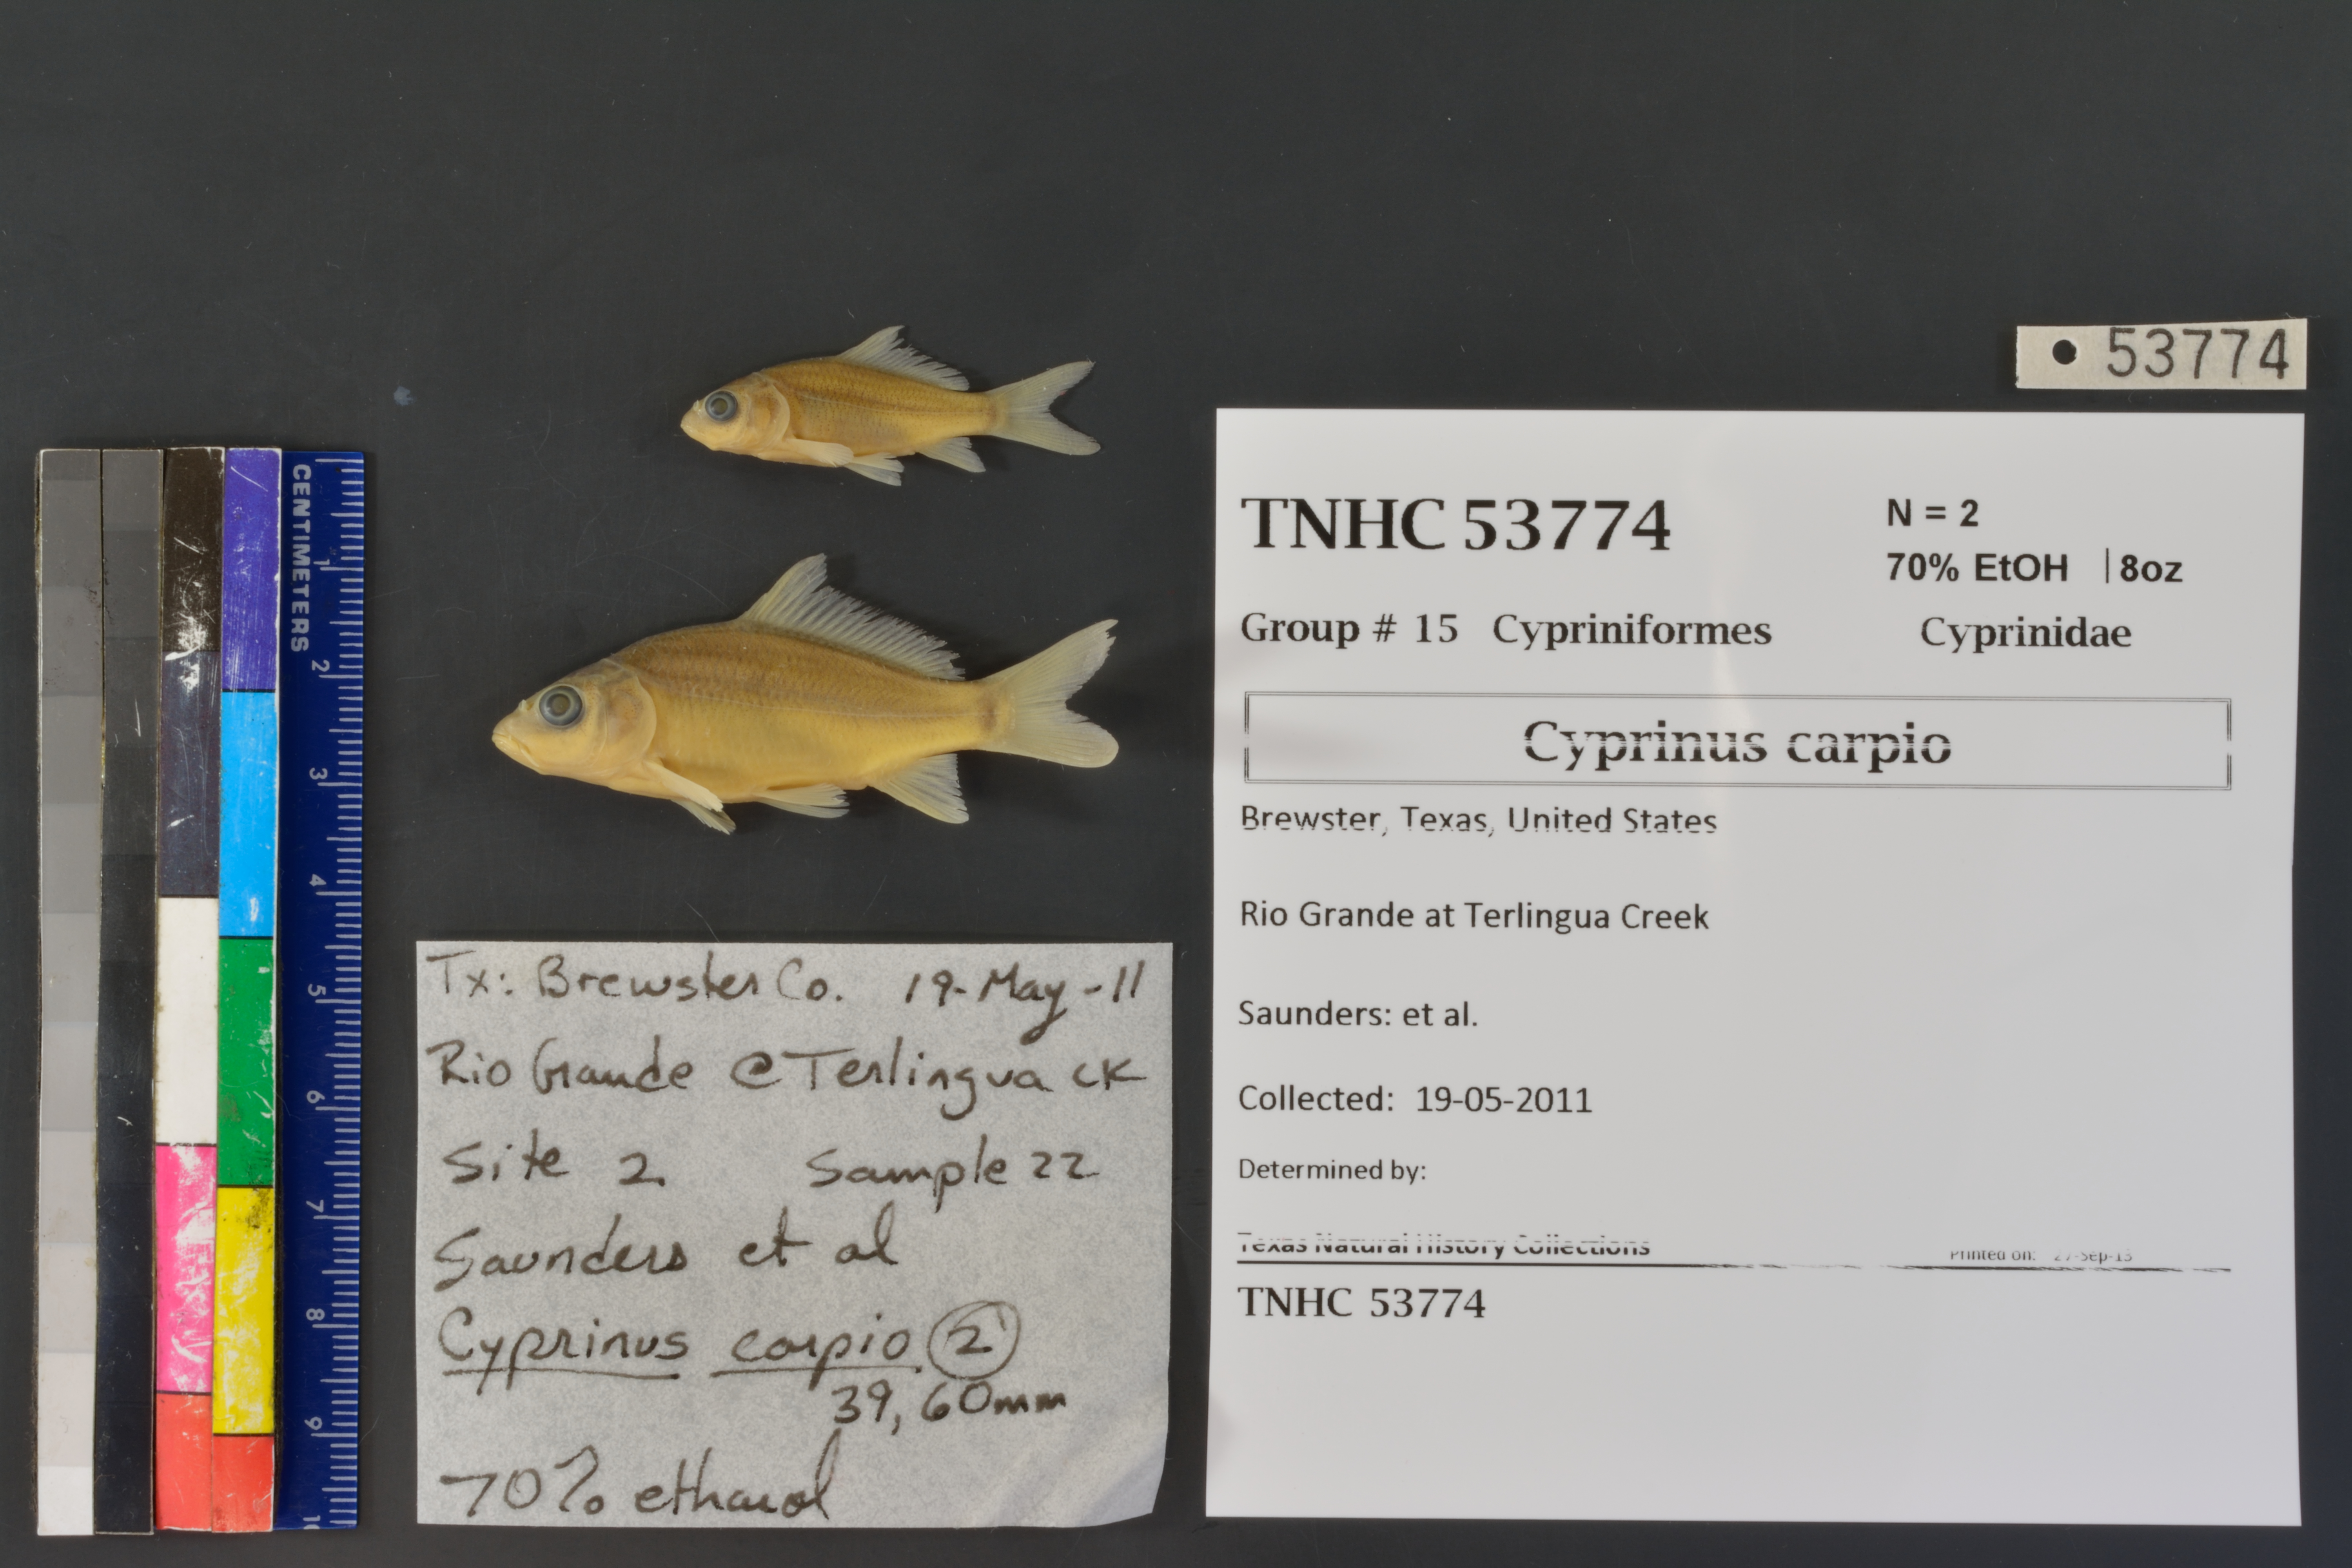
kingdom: Animalia
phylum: Chordata
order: Cypriniformes
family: Cyprinidae
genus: Cyprinus
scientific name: Cyprinus carpio
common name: Common carp
